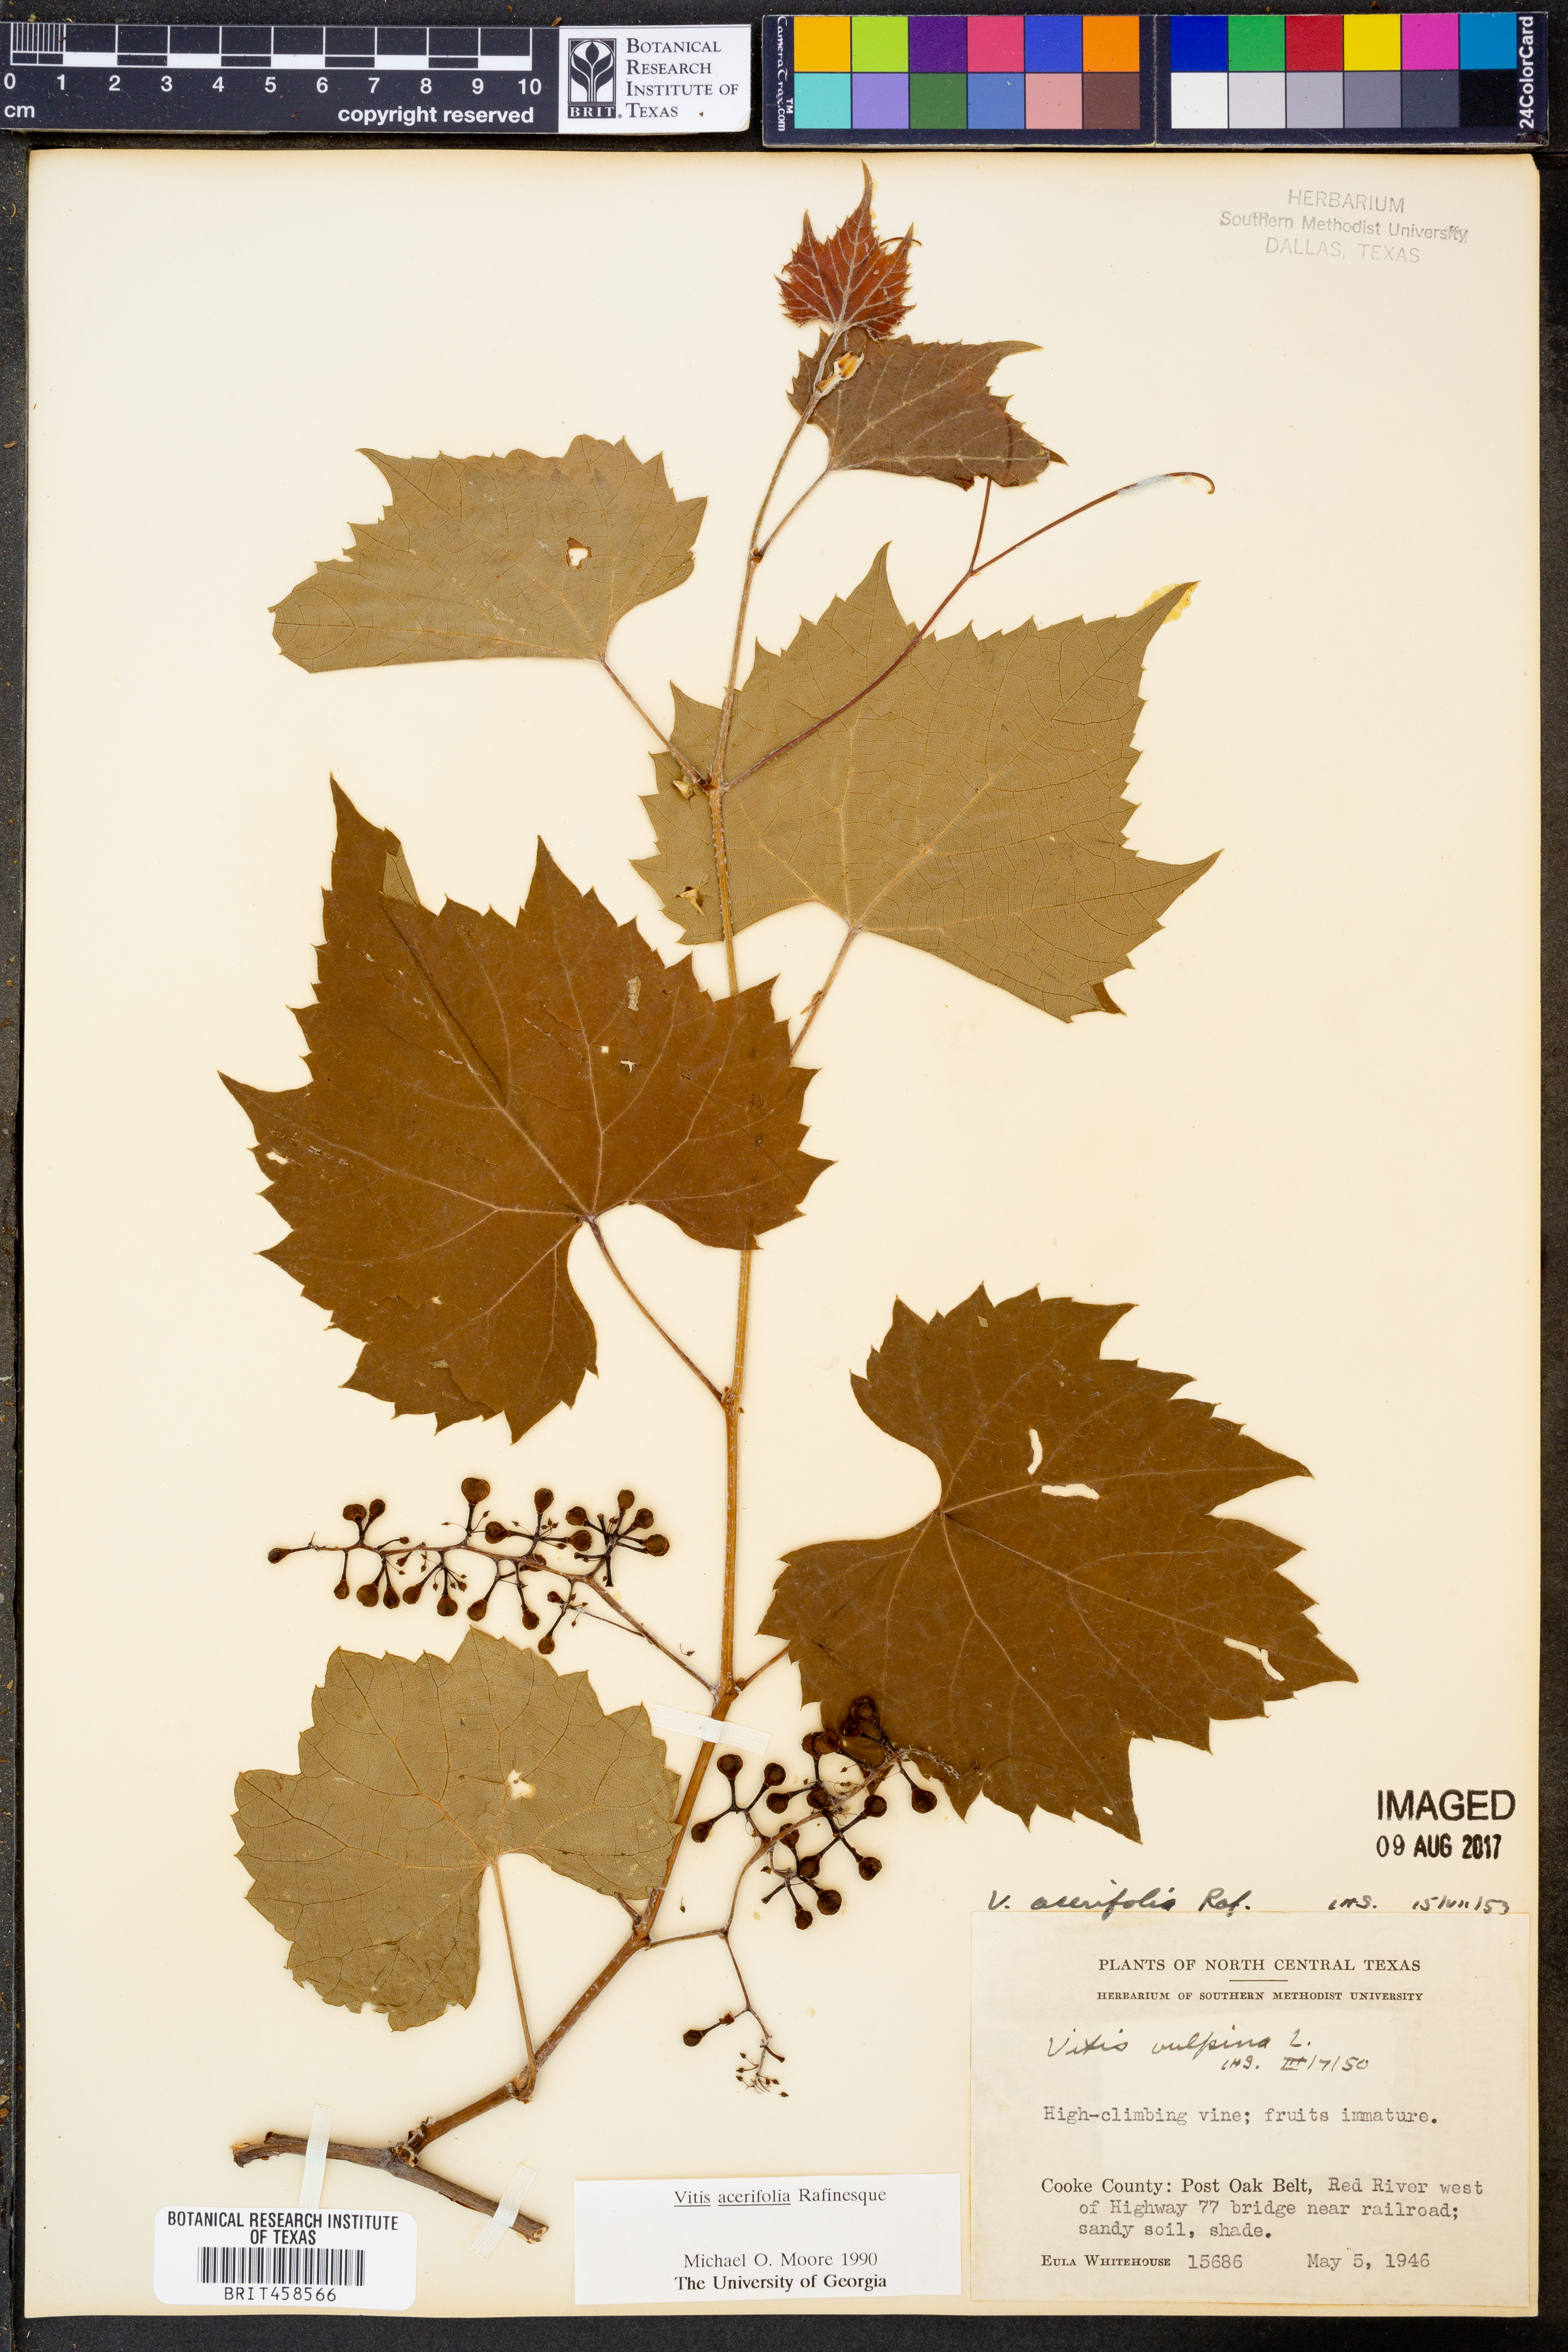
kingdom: Plantae
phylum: Tracheophyta
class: Magnoliopsida
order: Vitales
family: Vitaceae
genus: Vitis
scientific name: Vitis acerifolia
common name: Bush grape
